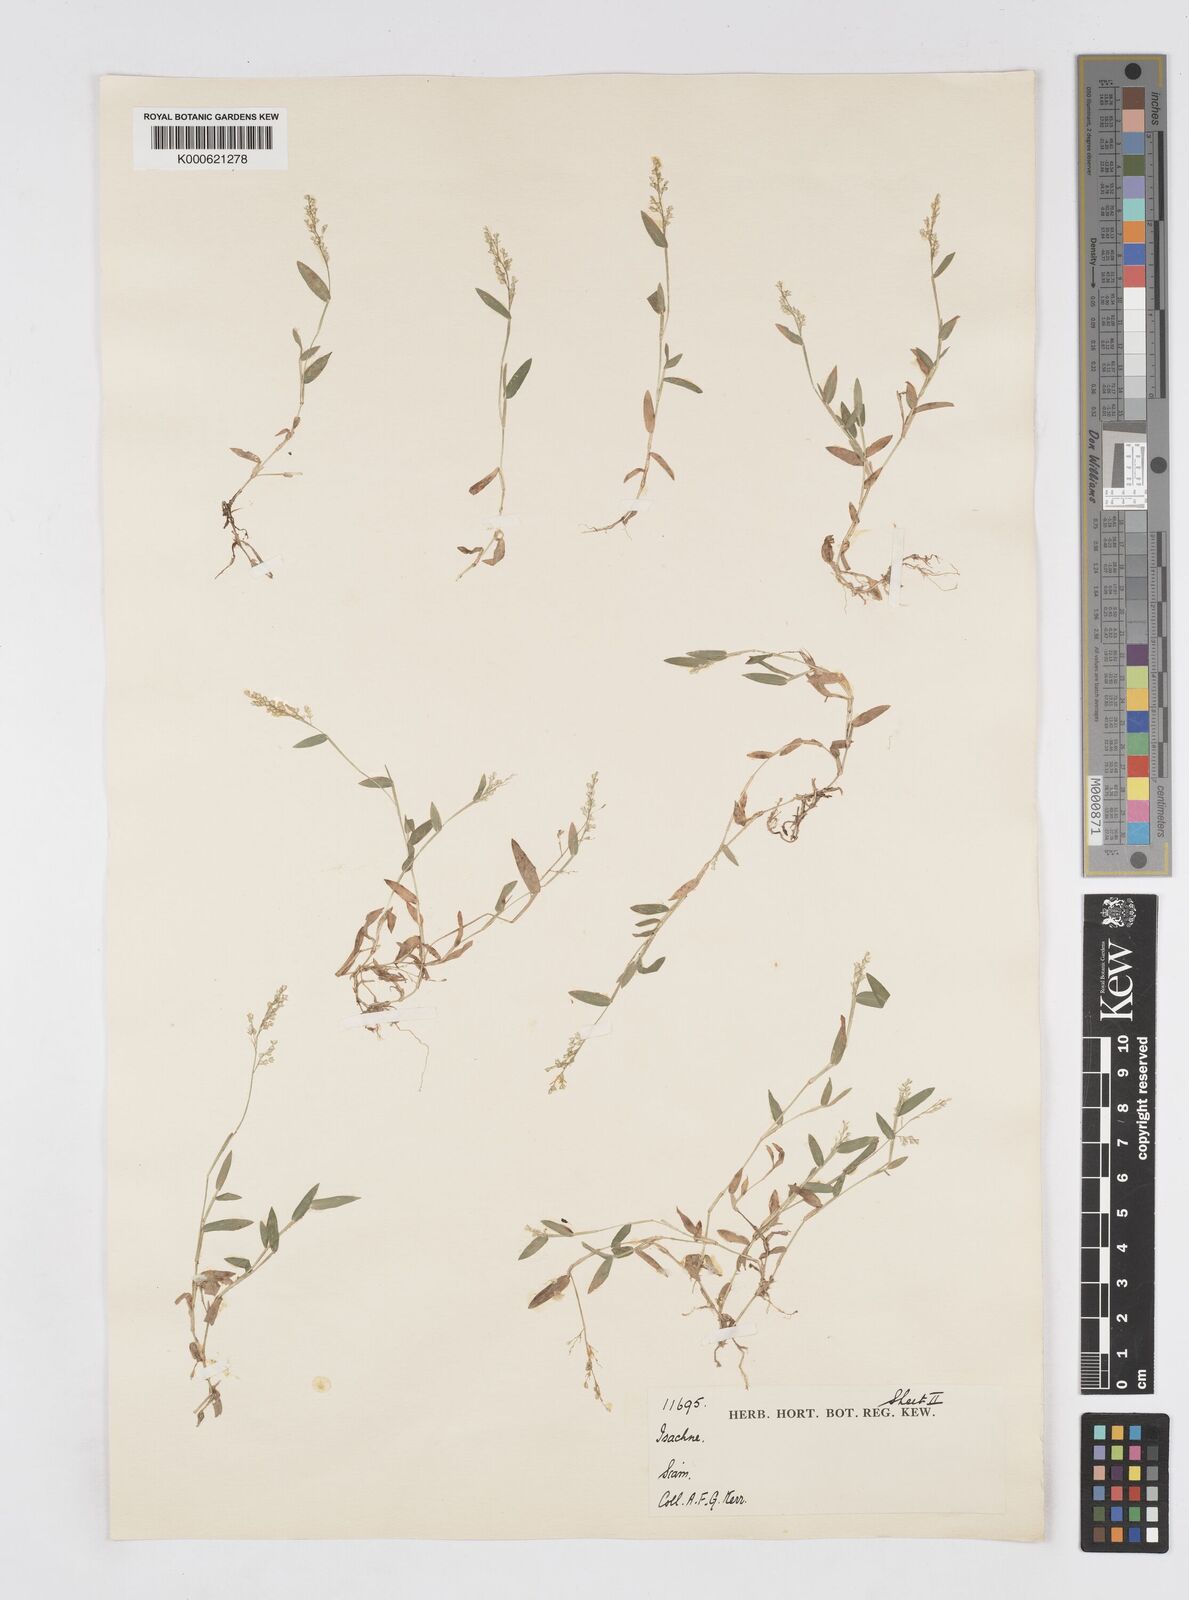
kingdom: Plantae
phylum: Tracheophyta
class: Liliopsida
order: Poales
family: Poaceae
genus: Isachne
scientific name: Isachne
